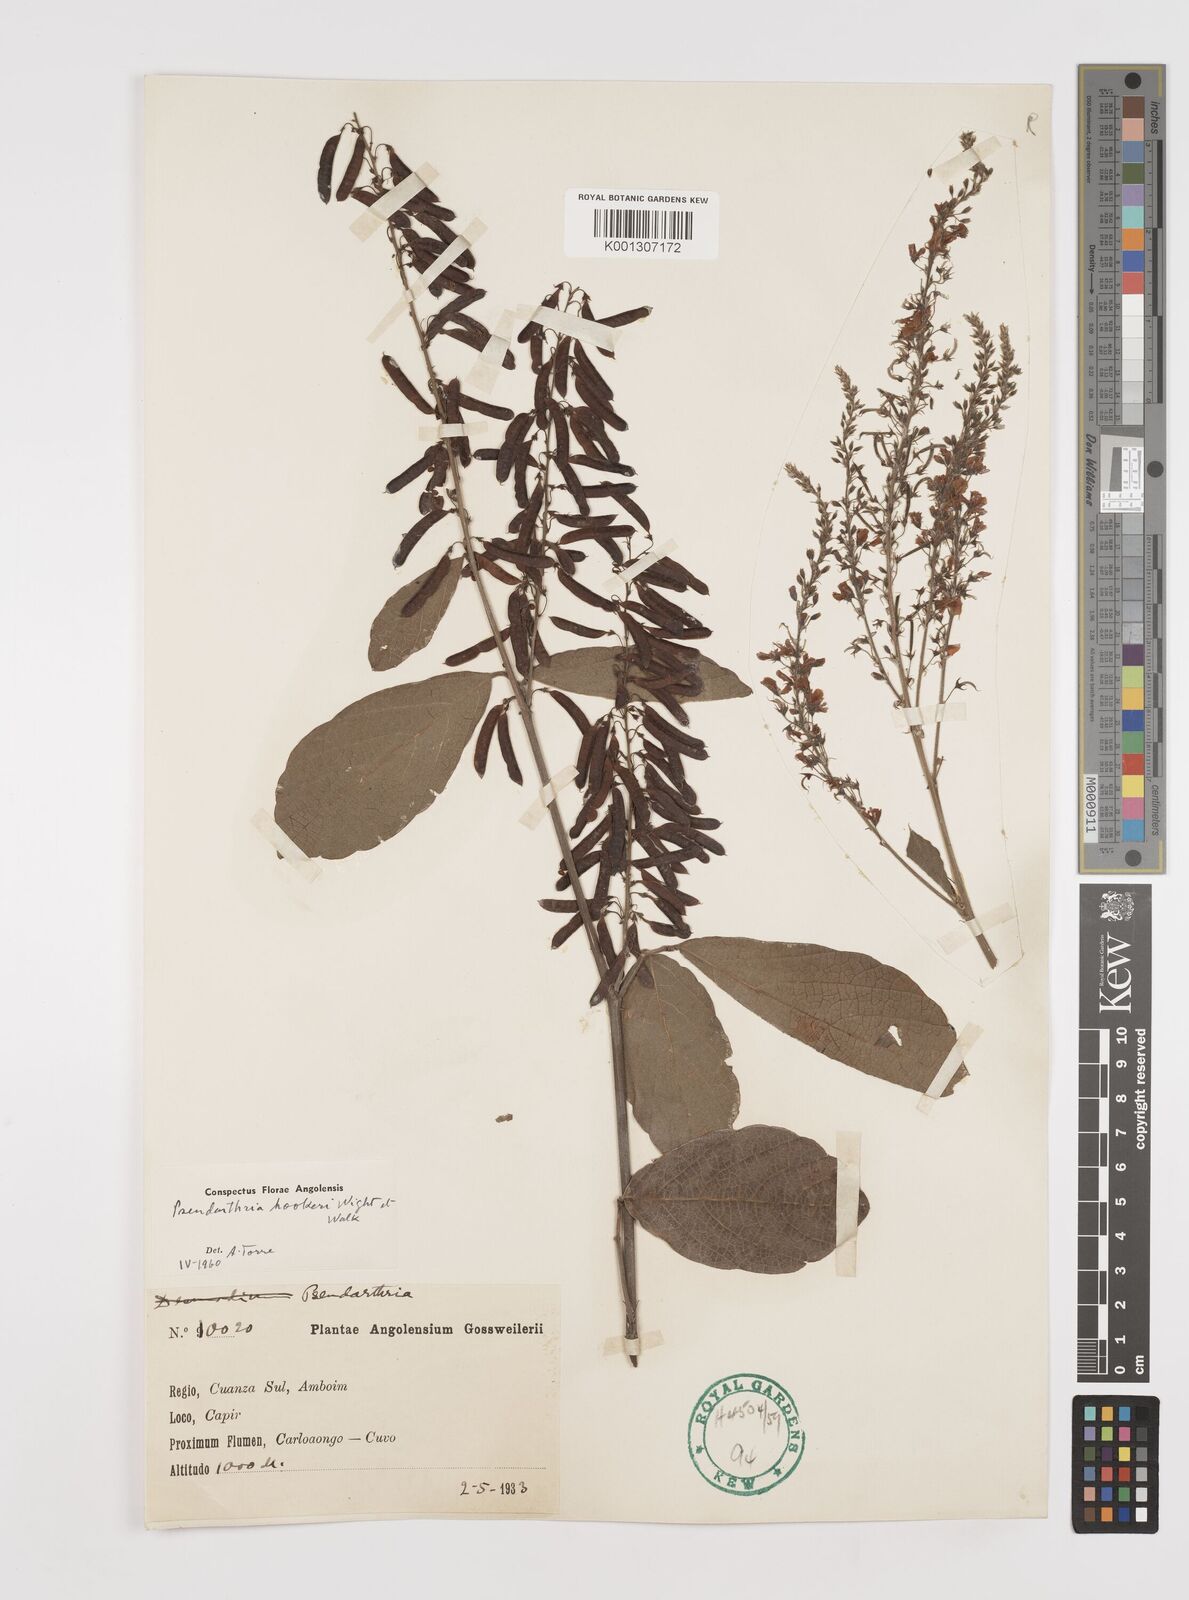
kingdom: Plantae
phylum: Tracheophyta
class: Magnoliopsida
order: Fabales
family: Fabaceae
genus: Pseudarthria
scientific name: Pseudarthria hookeri
